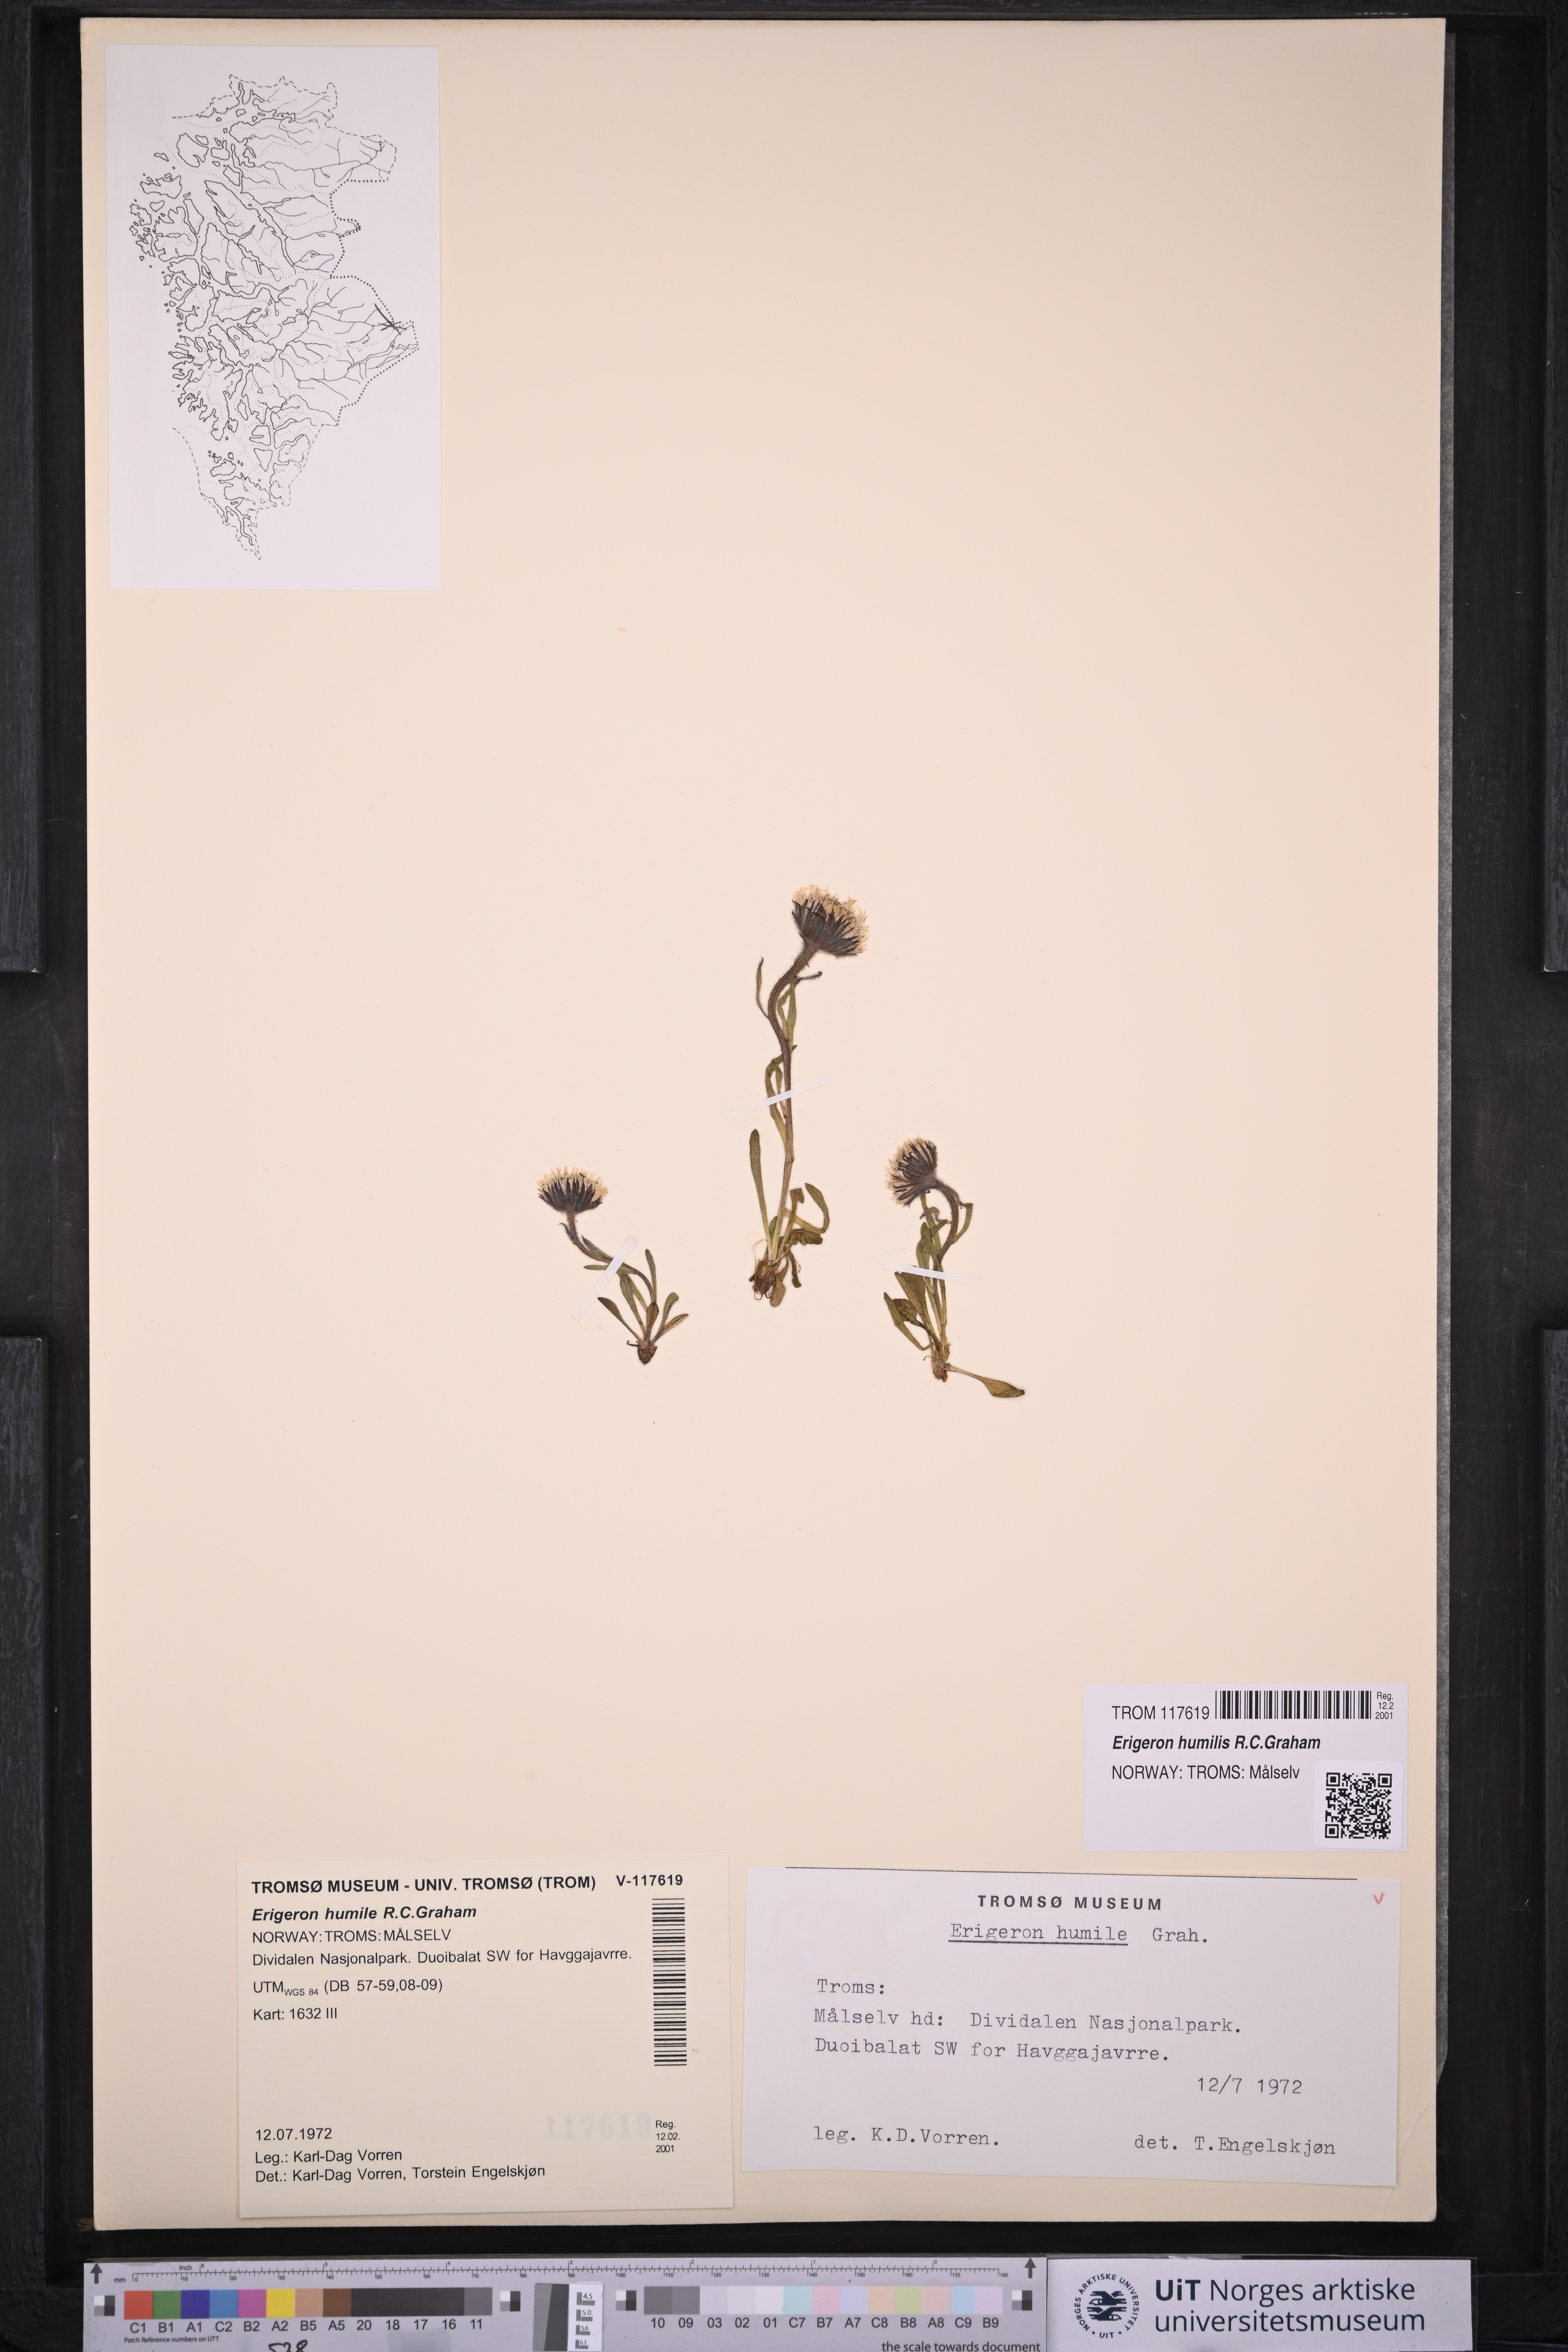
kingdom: Plantae
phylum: Tracheophyta
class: Magnoliopsida
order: Asterales
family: Asteraceae
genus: Erigeron
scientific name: Erigeron humilis
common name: Arctic-alpine fleabane
